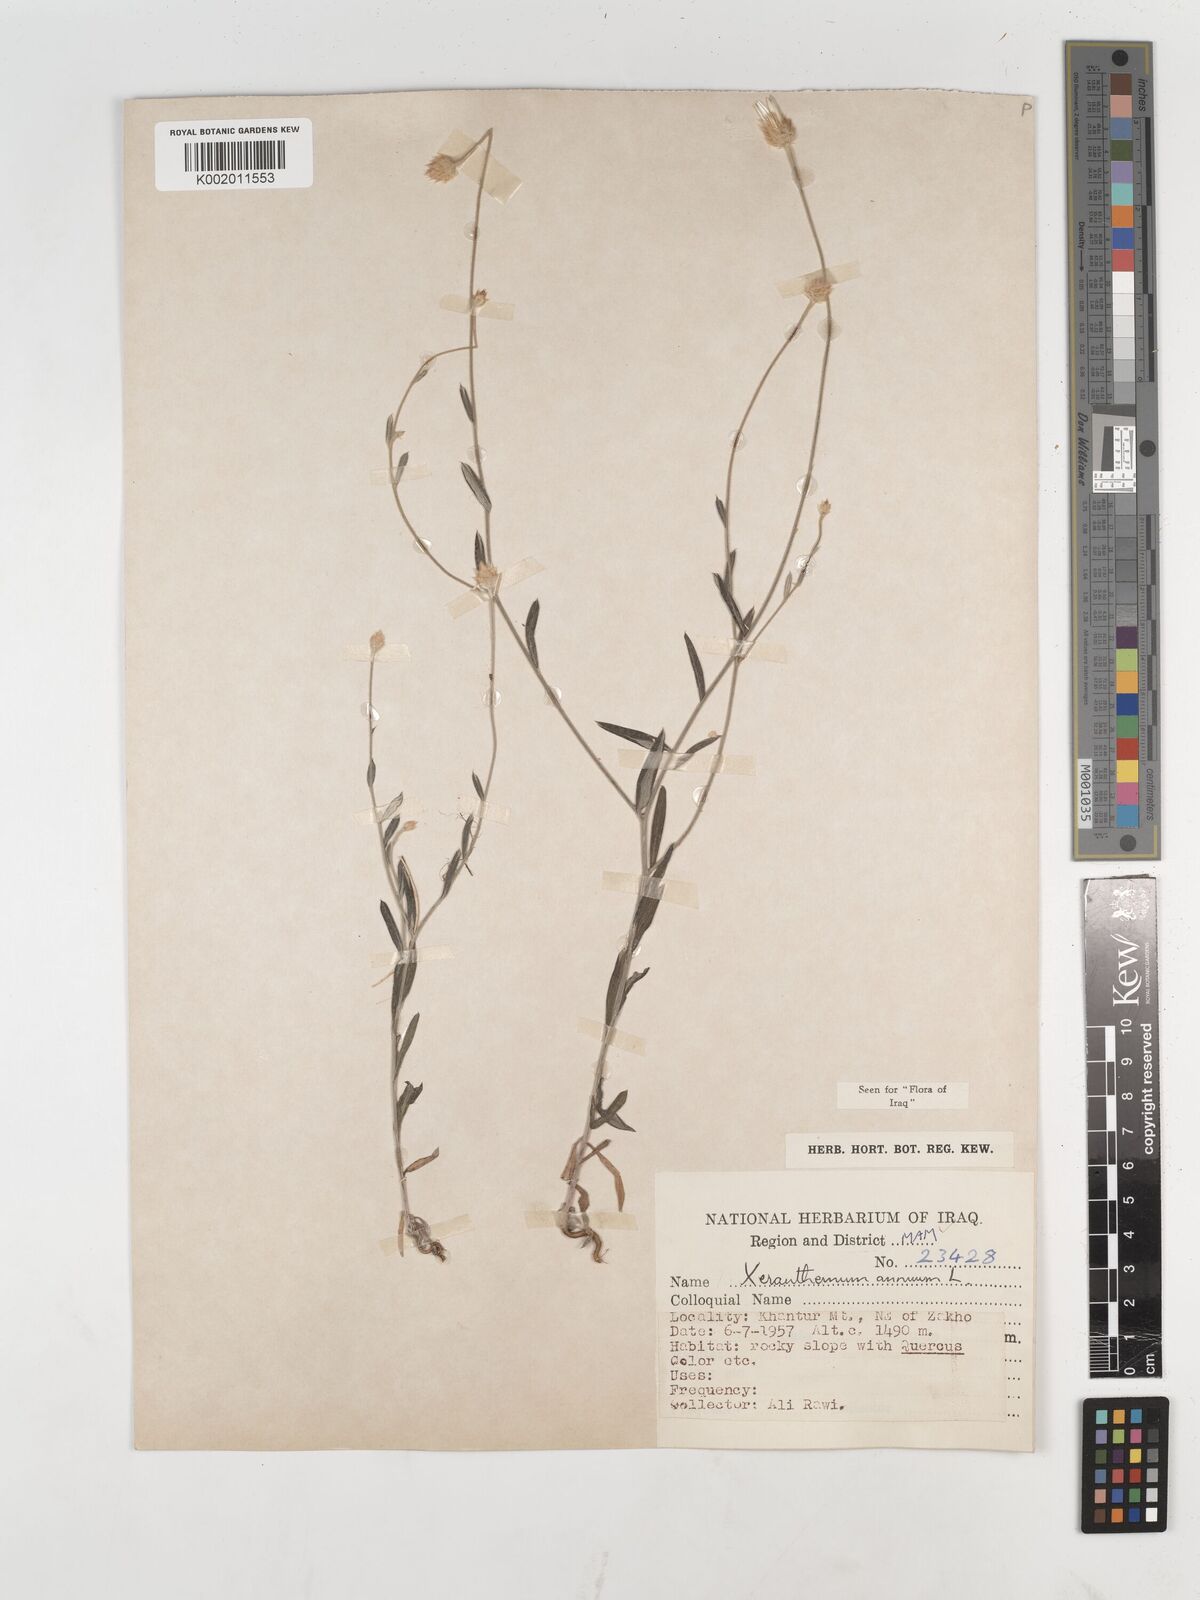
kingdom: Plantae
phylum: Tracheophyta
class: Magnoliopsida
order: Asterales
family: Asteraceae
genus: Xeranthemum
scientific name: Xeranthemum annuum
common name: Immortelle
